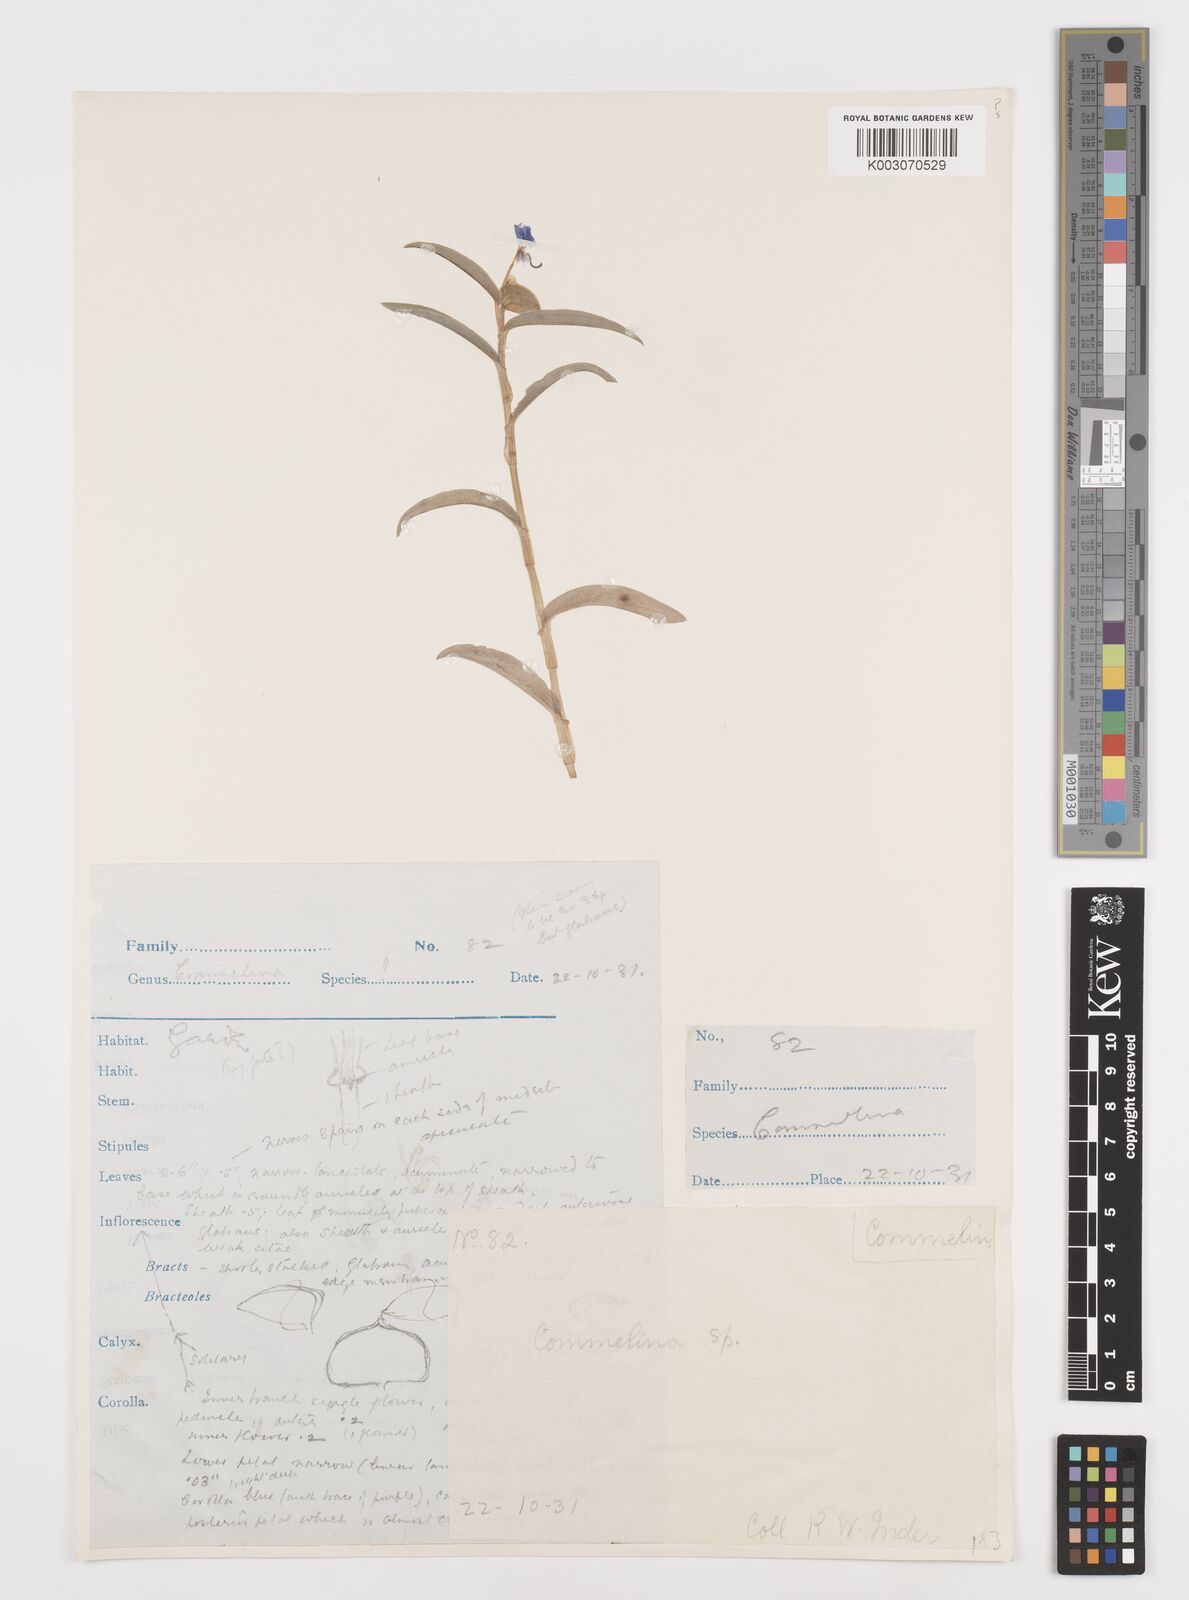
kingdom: Plantae
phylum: Tracheophyta
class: Liliopsida
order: Commelinales
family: Commelinaceae
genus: Commelina
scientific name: Commelina
